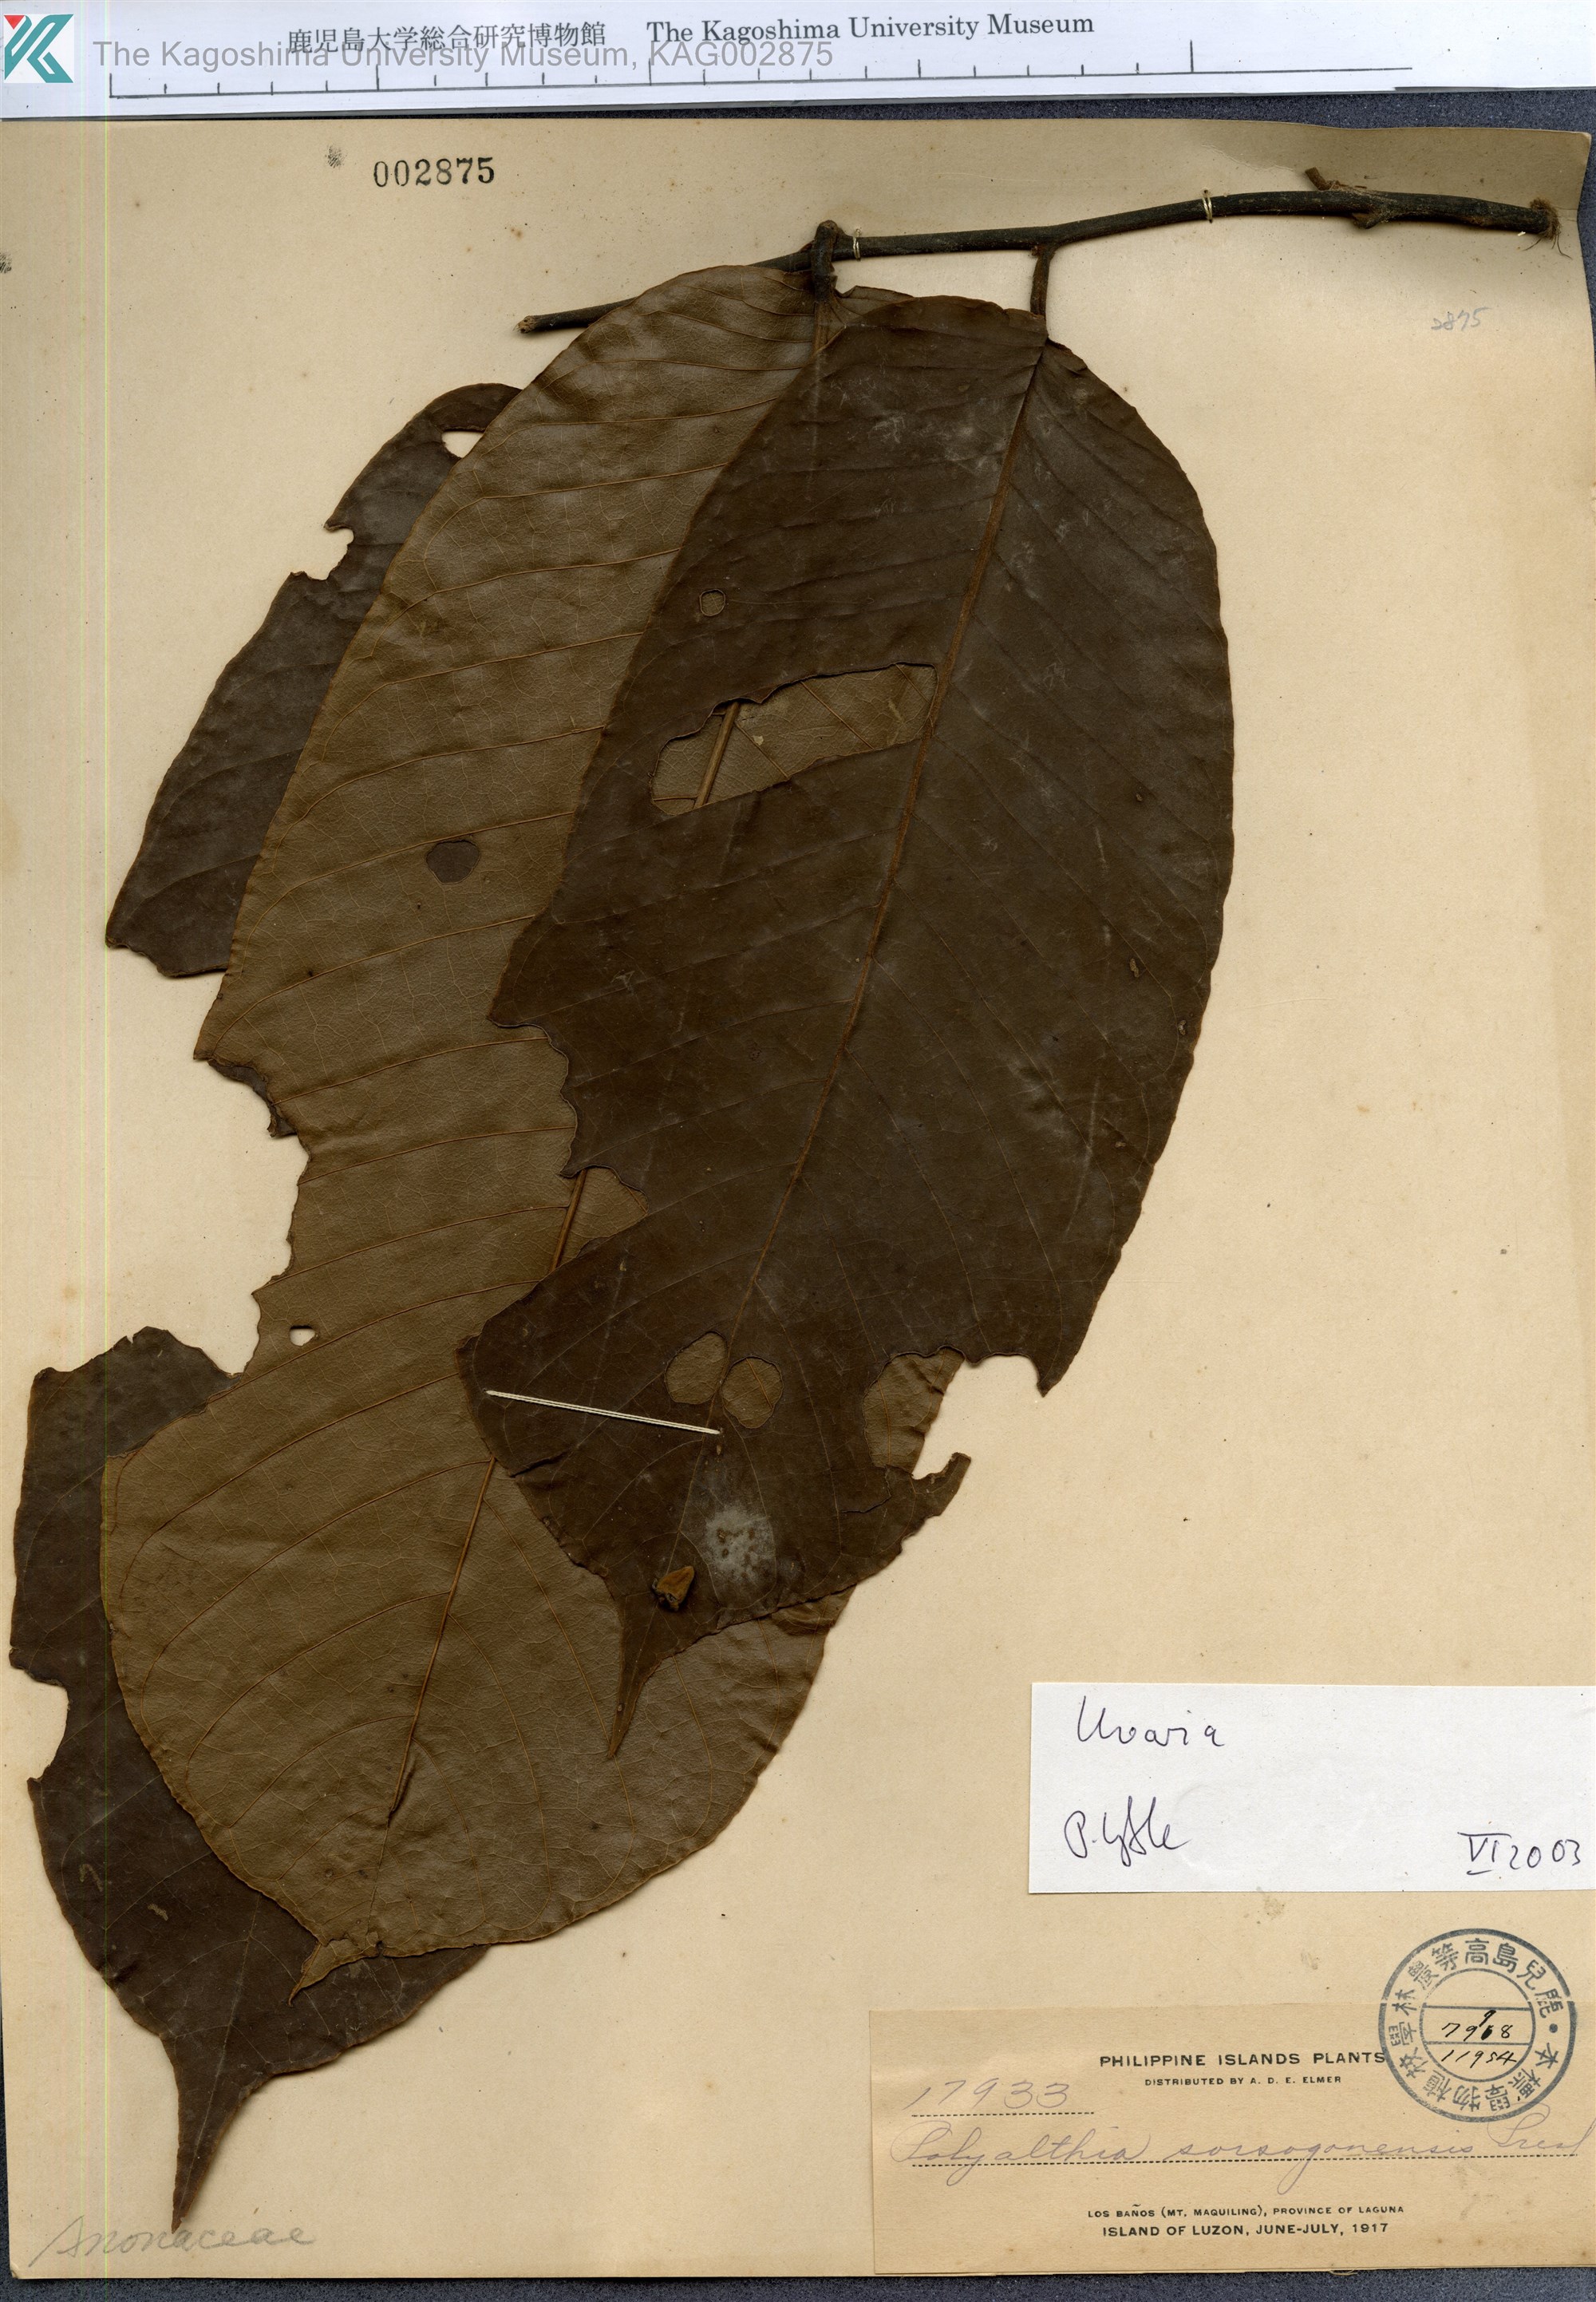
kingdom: Plantae
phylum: Tracheophyta
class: Magnoliopsida
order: Magnoliales
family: Annonaceae
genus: Uvaria
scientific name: Uvaria
